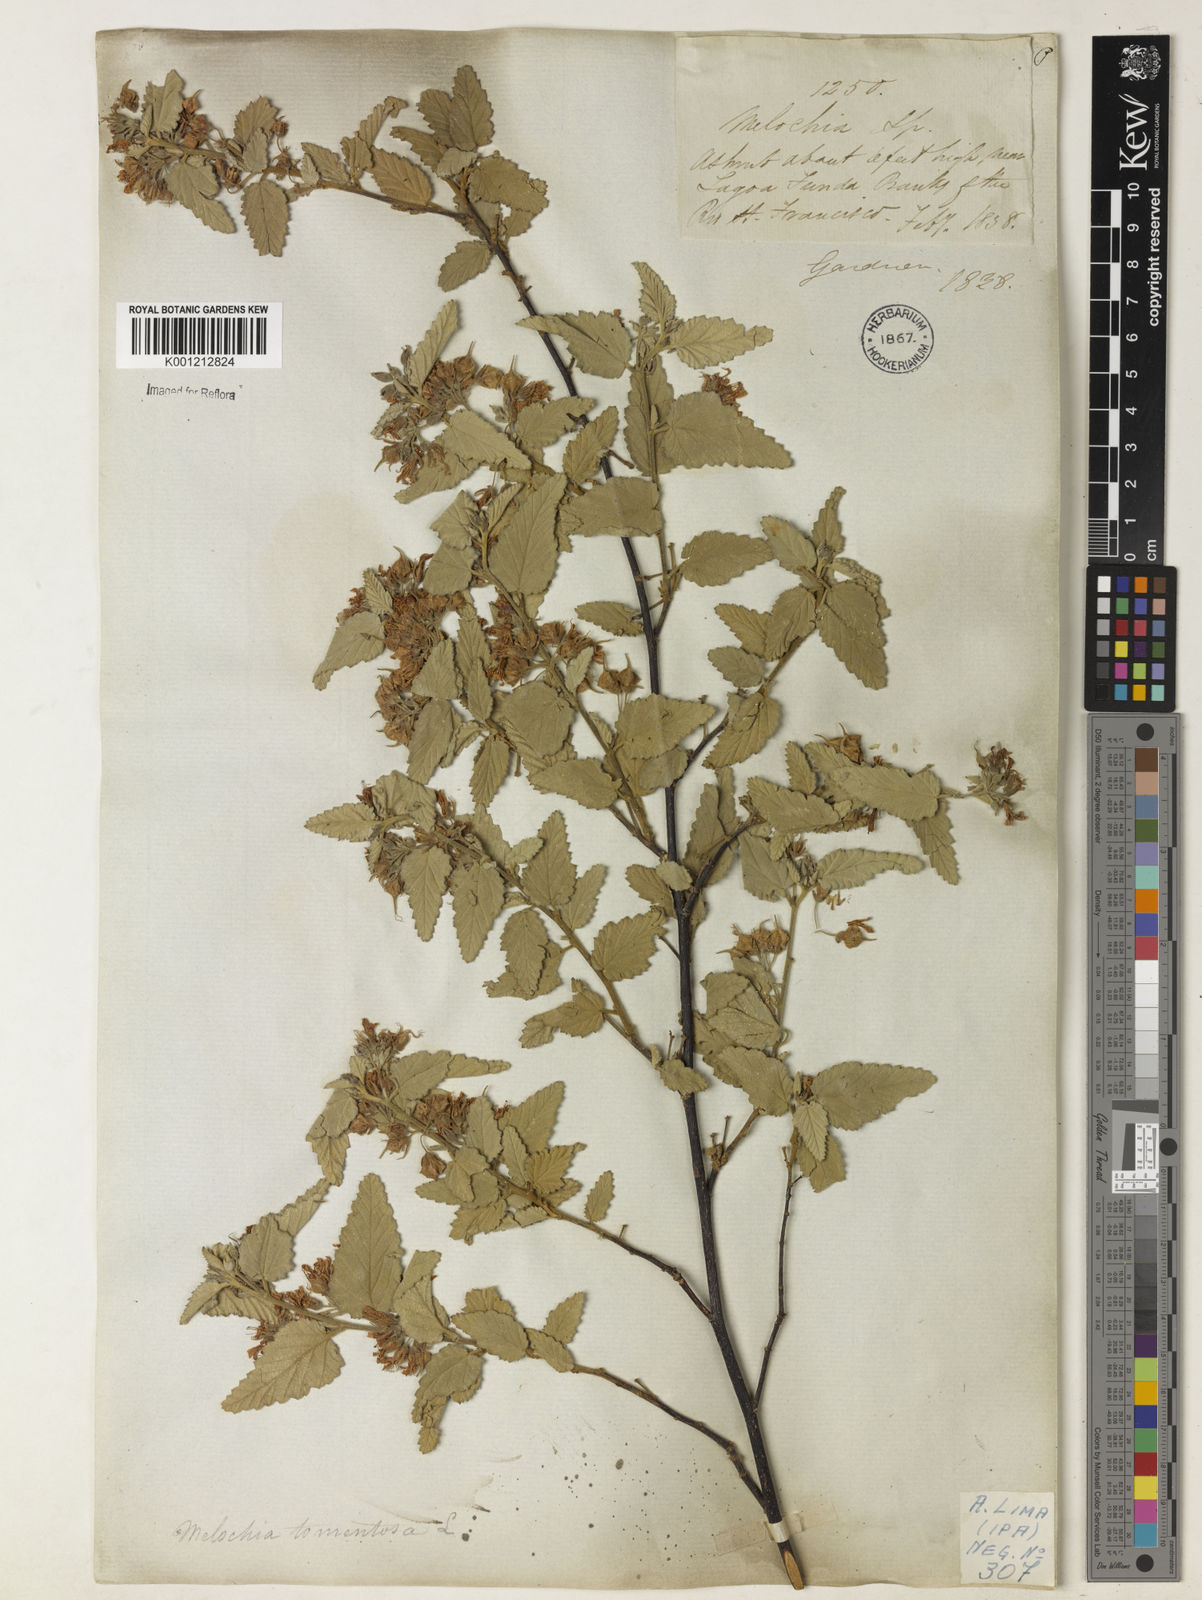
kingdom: Plantae
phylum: Tracheophyta
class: Magnoliopsida
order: Malvales
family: Malvaceae
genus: Melochia
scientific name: Melochia tomentosa
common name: Black torch
